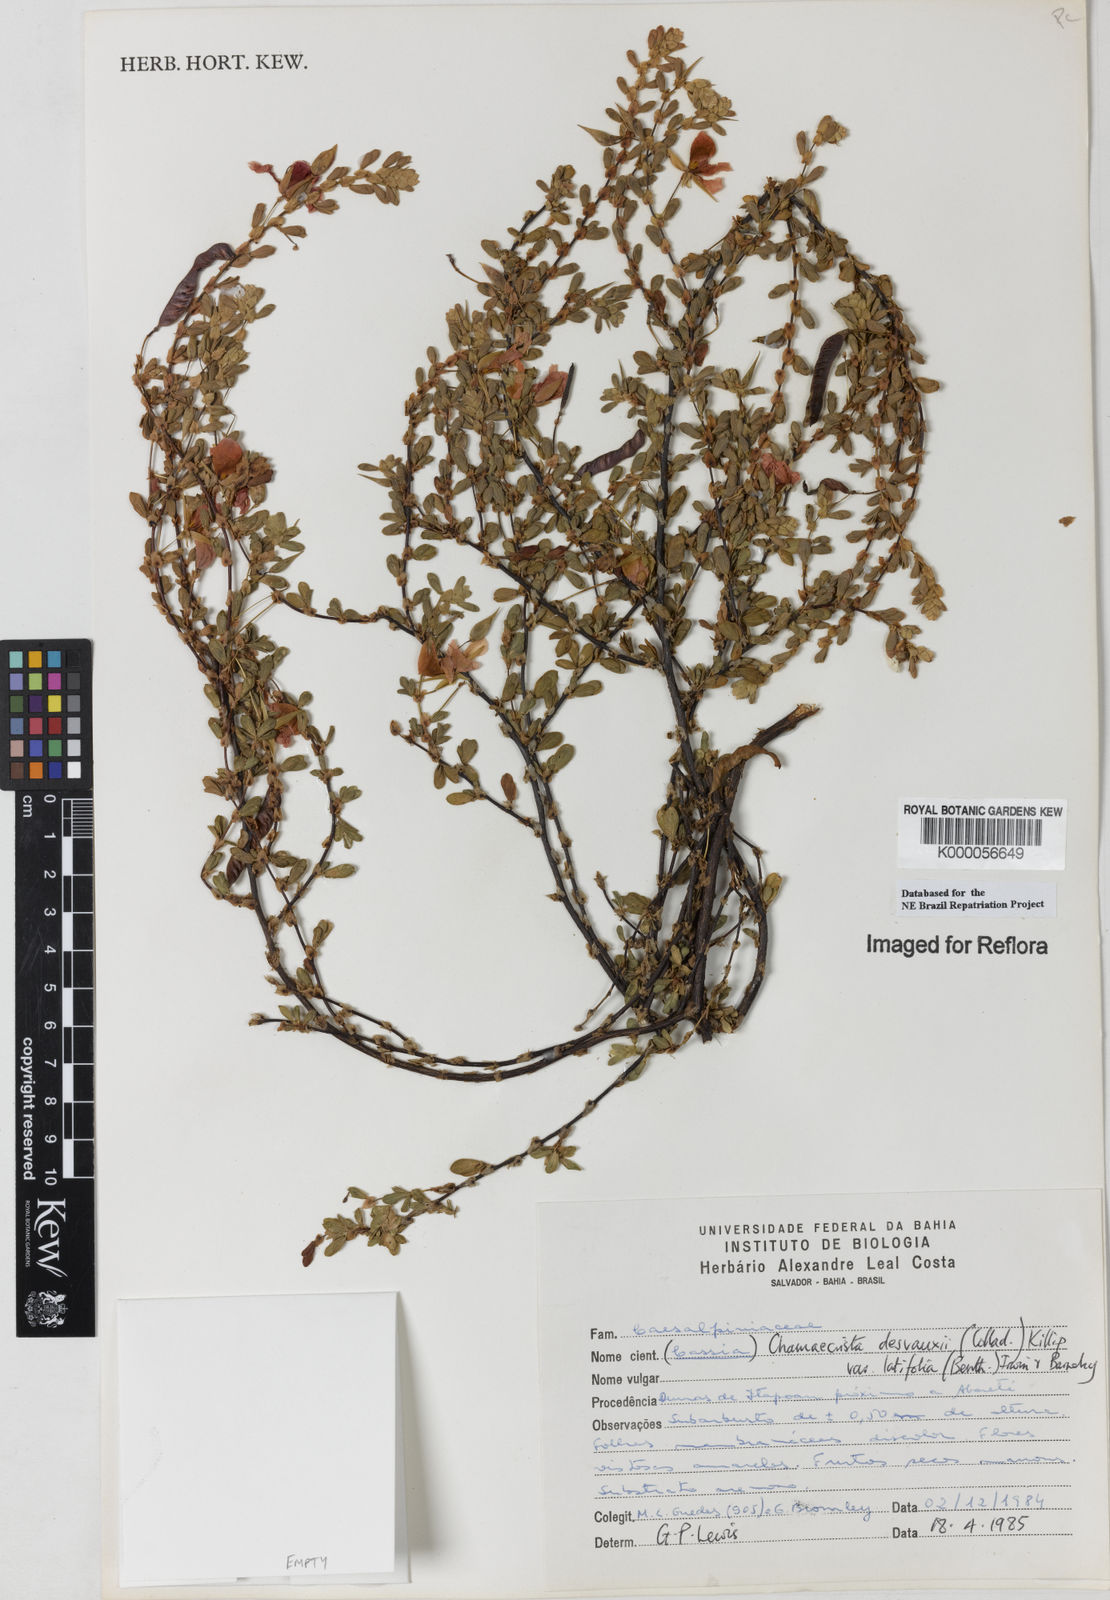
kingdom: Plantae
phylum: Tracheophyta
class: Magnoliopsida
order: Fabales
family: Fabaceae
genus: Chamaecrista
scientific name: Chamaecrista desvauxii
